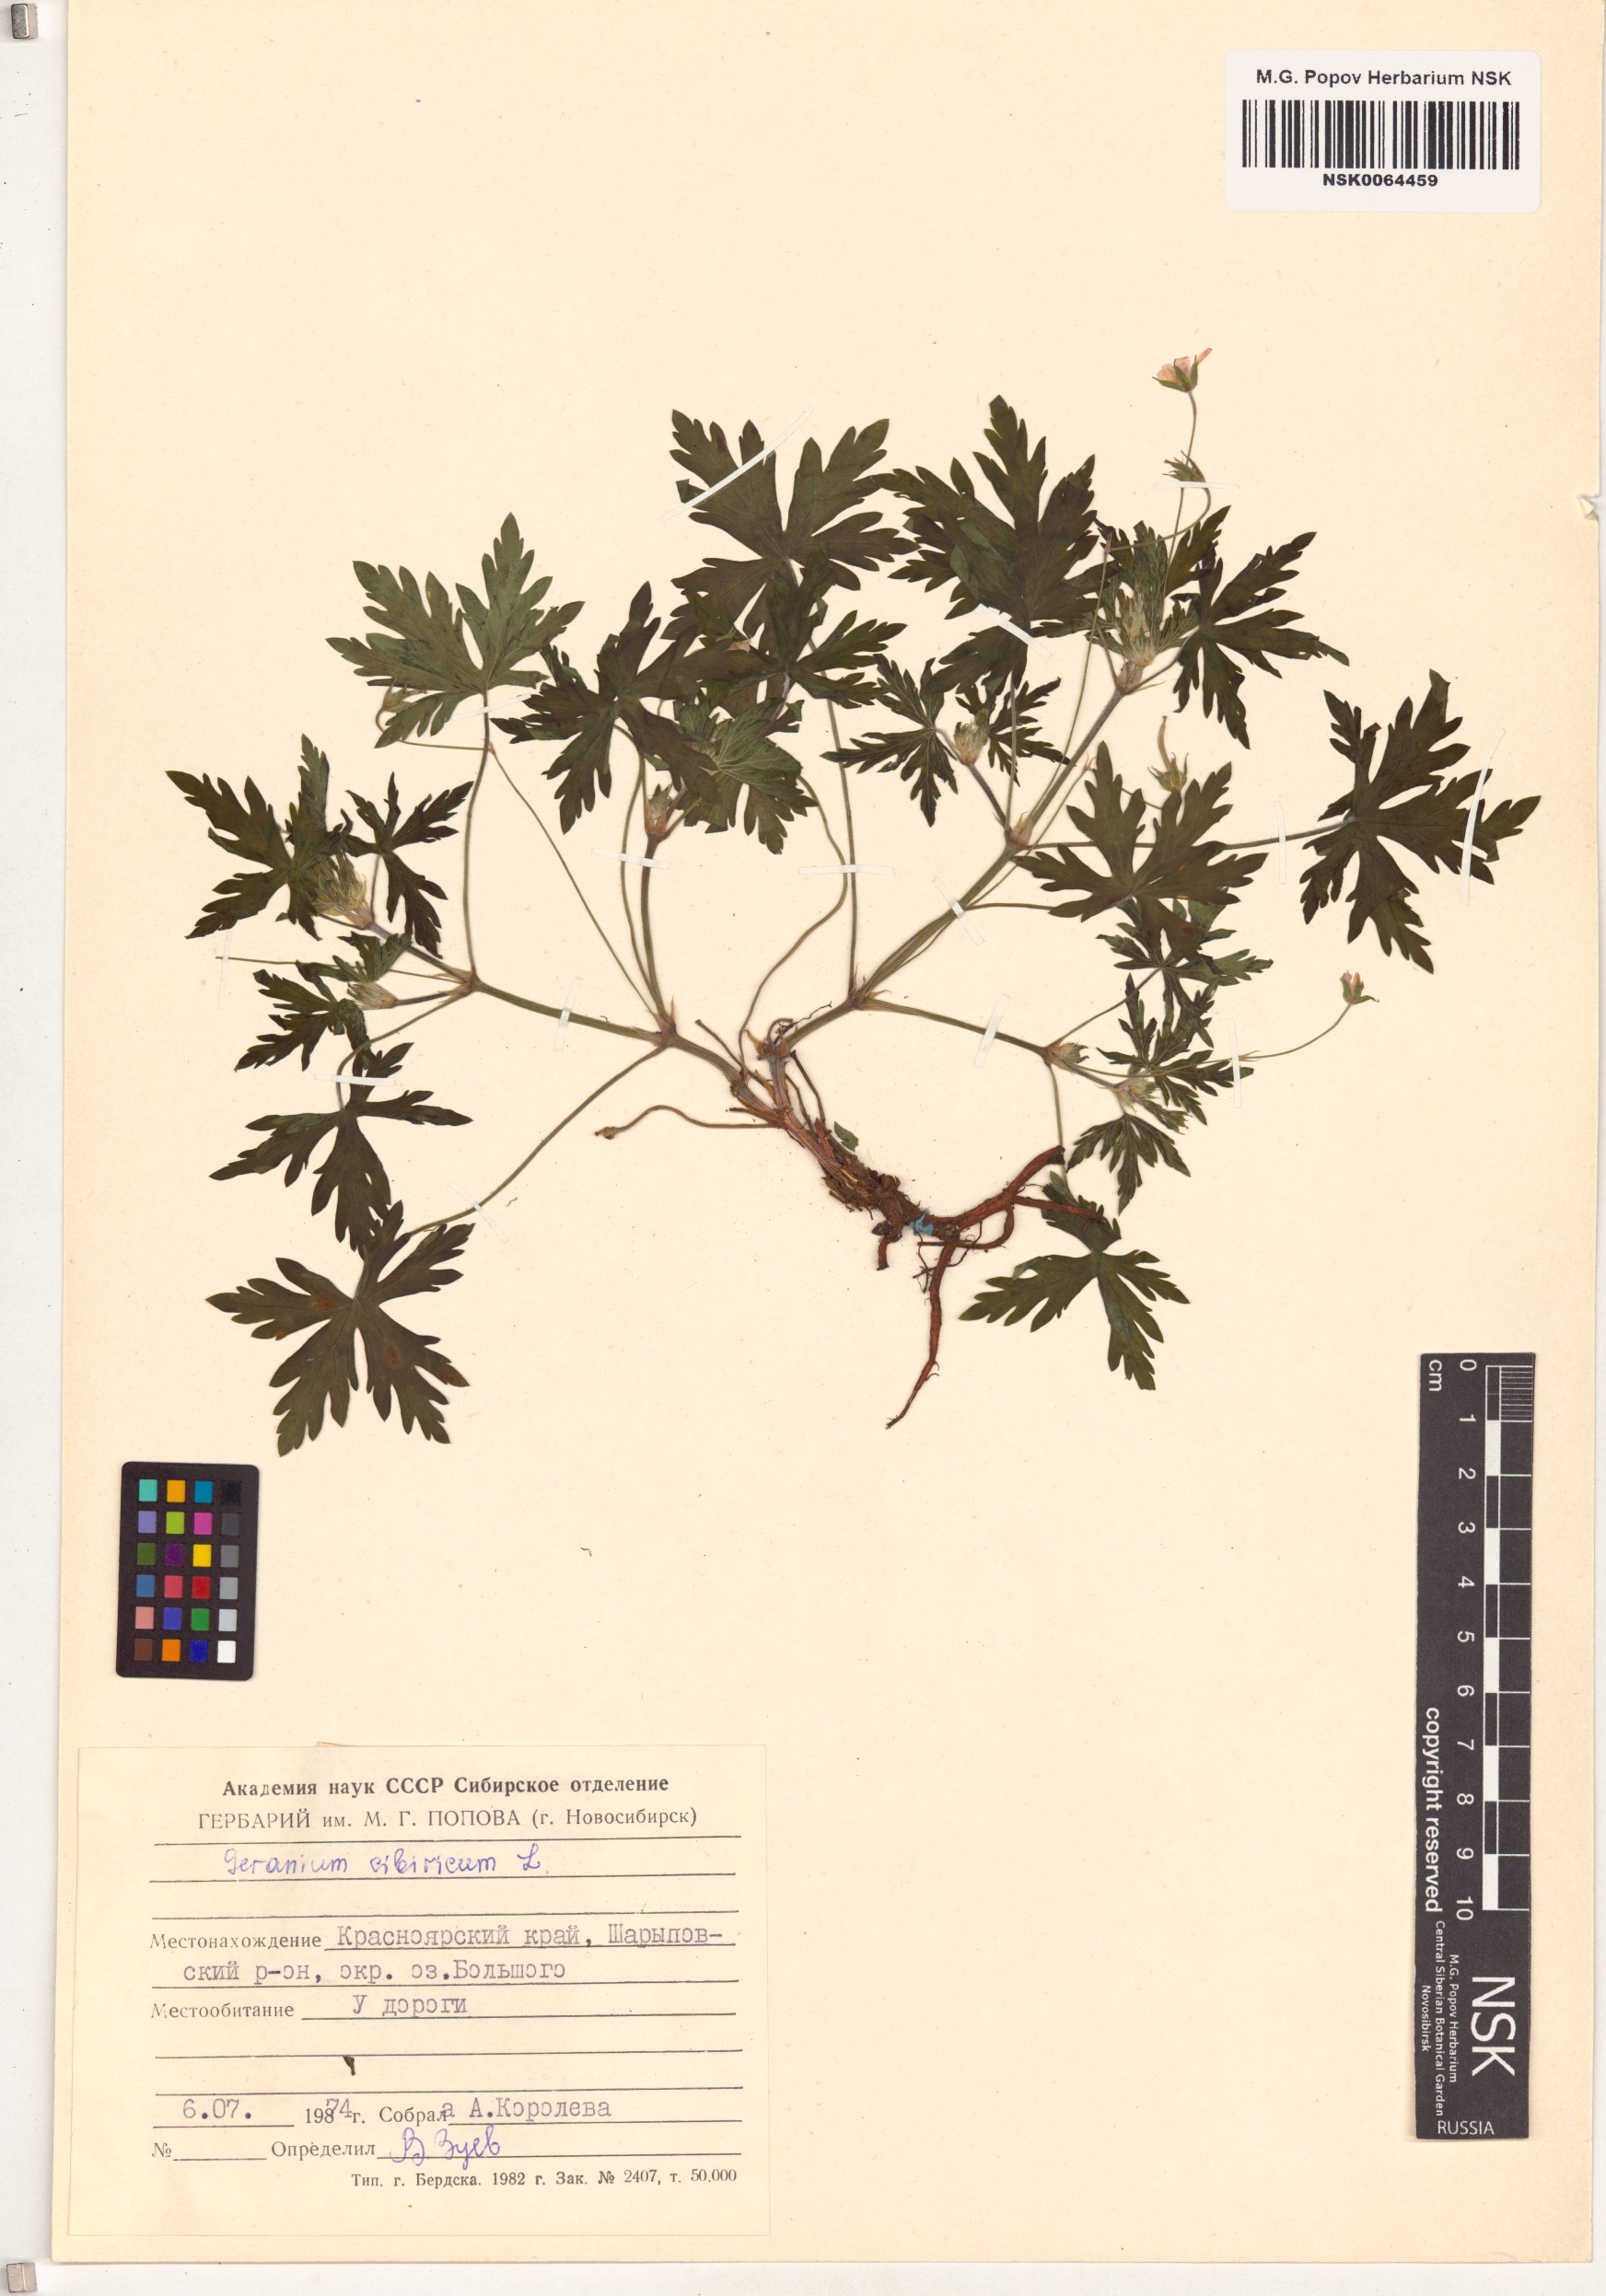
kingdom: Plantae
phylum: Tracheophyta
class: Magnoliopsida
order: Geraniales
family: Geraniaceae
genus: Geranium
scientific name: Geranium sibiricum
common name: Siberian crane's-bill
